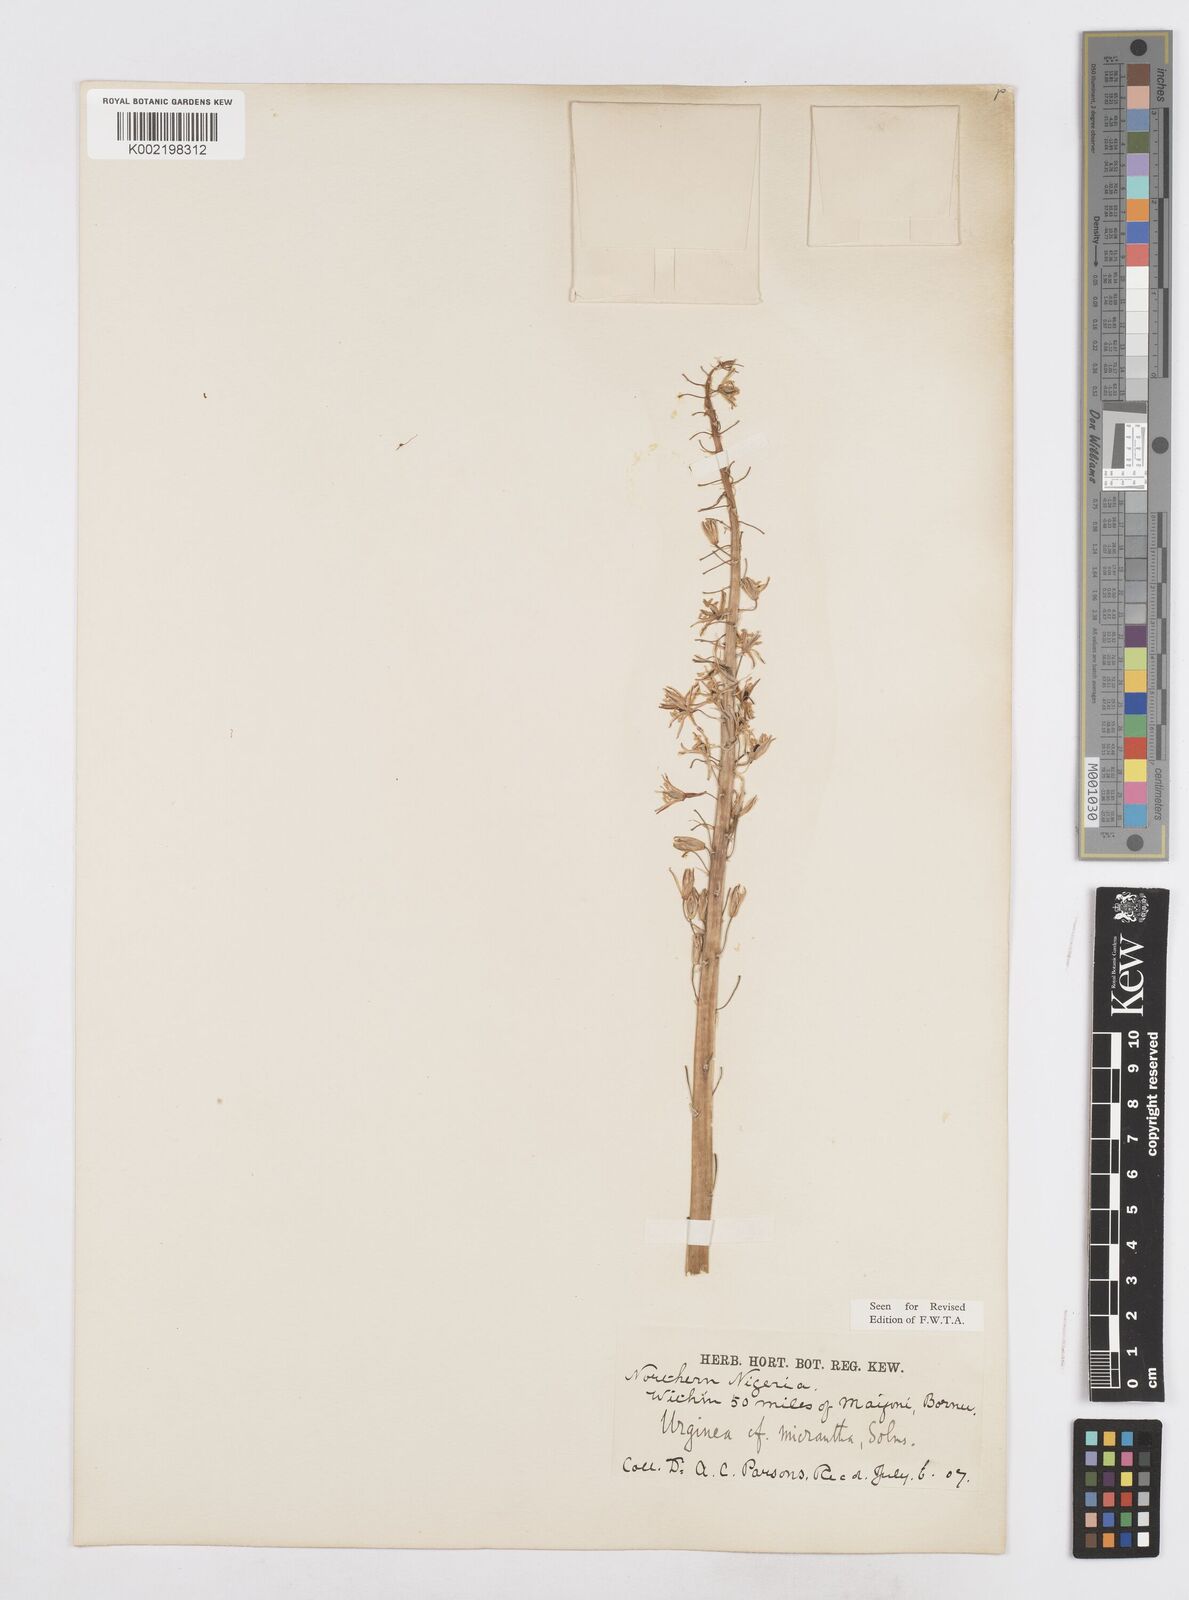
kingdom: Plantae
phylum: Tracheophyta
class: Liliopsida
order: Asparagales
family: Asparagaceae
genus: Drimia
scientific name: Drimia altissima
